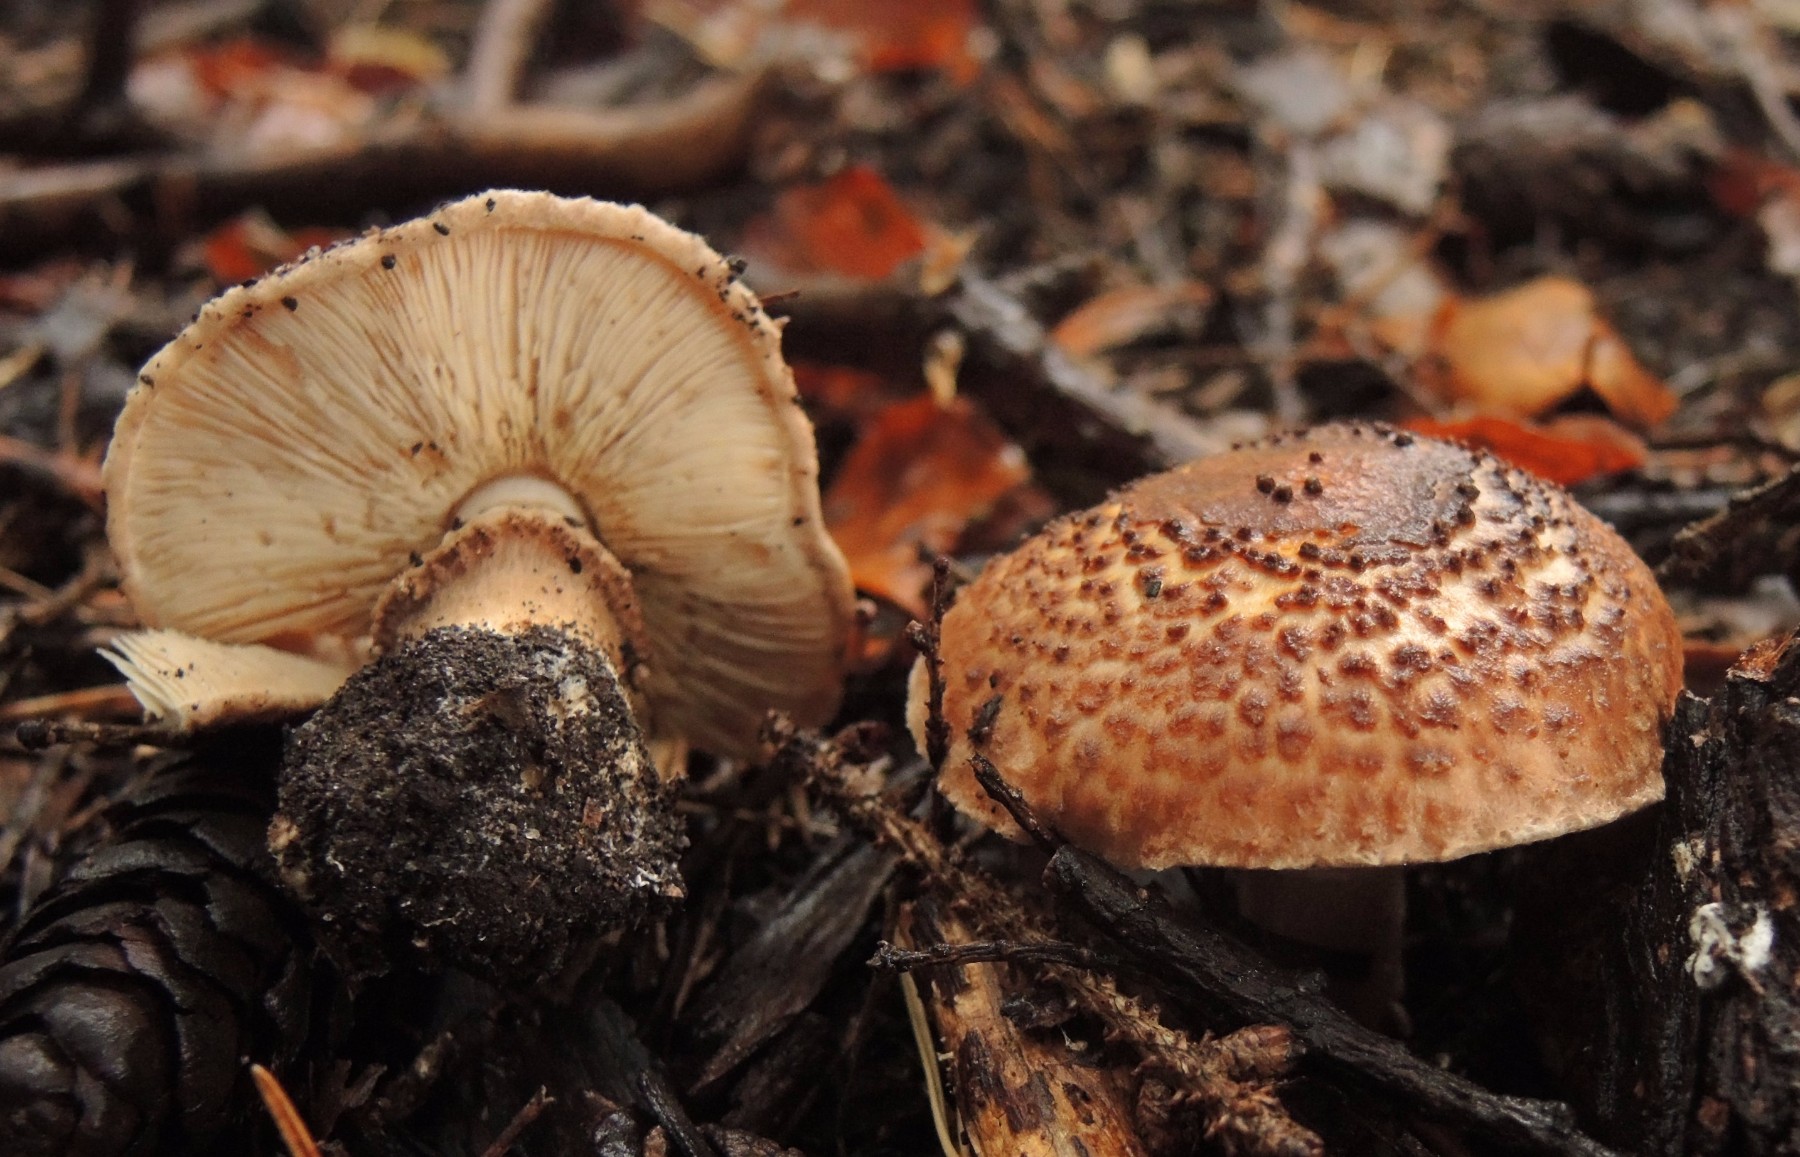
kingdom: Fungi
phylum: Basidiomycota
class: Agaricomycetes
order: Agaricales
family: Agaricaceae
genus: Echinoderma
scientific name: Echinoderma asperum
